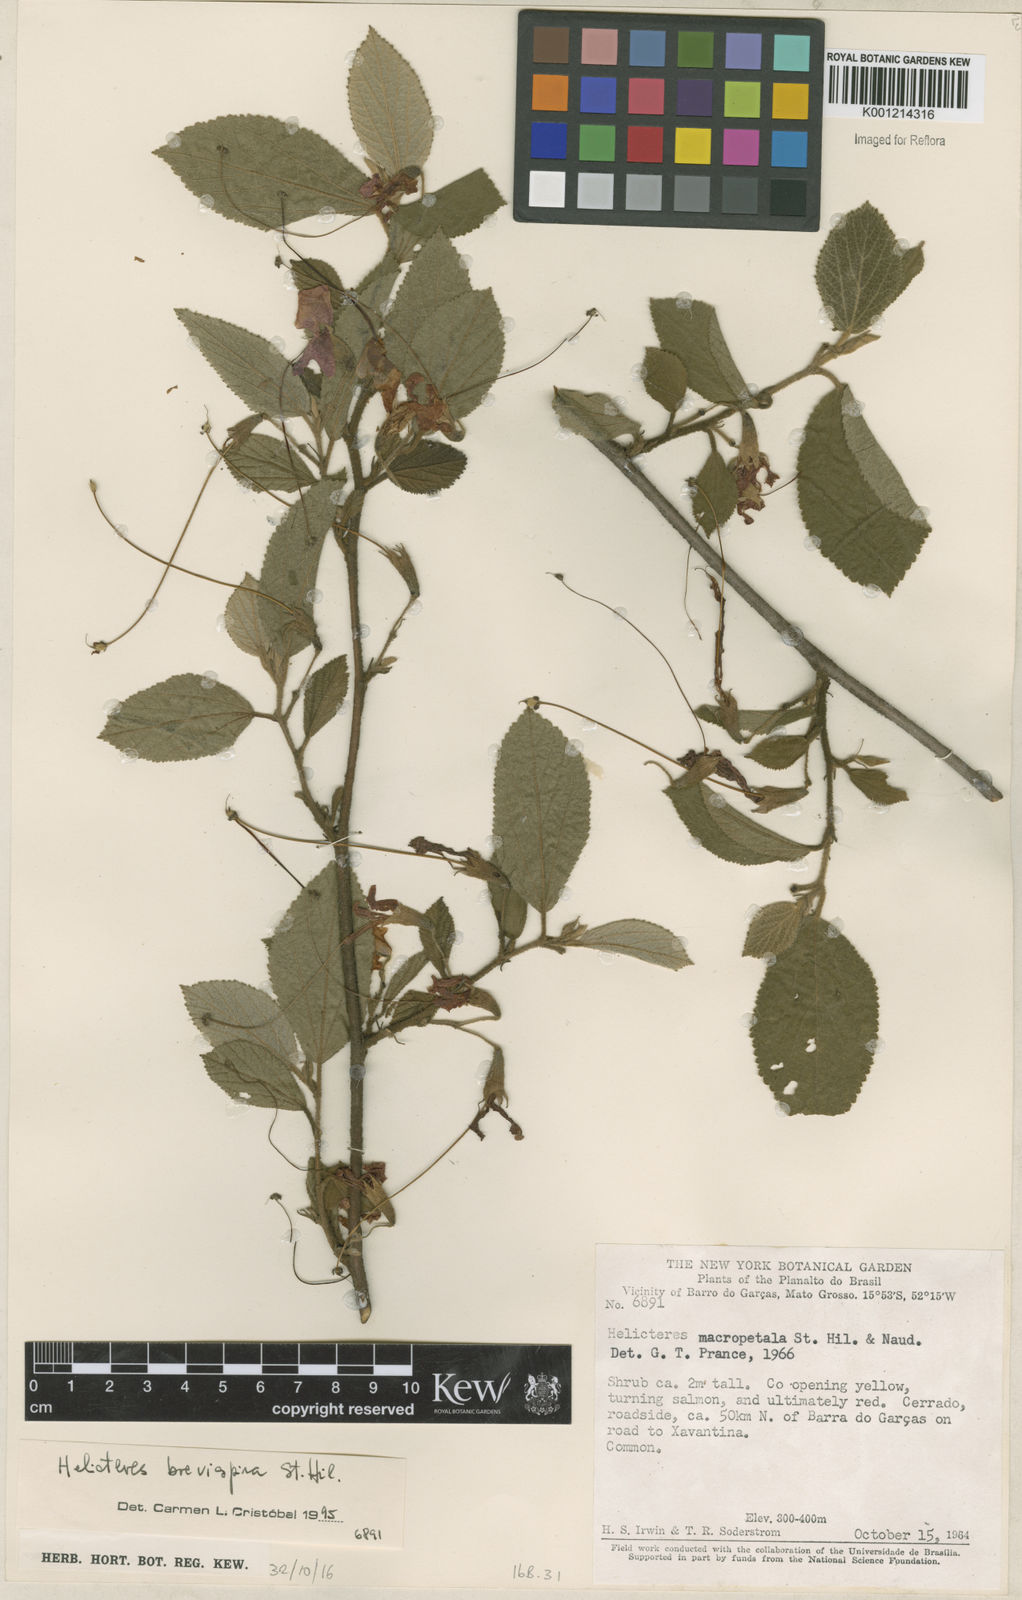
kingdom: Plantae
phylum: Tracheophyta
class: Magnoliopsida
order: Malvales
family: Malvaceae
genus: Helicteres
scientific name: Helicteres
